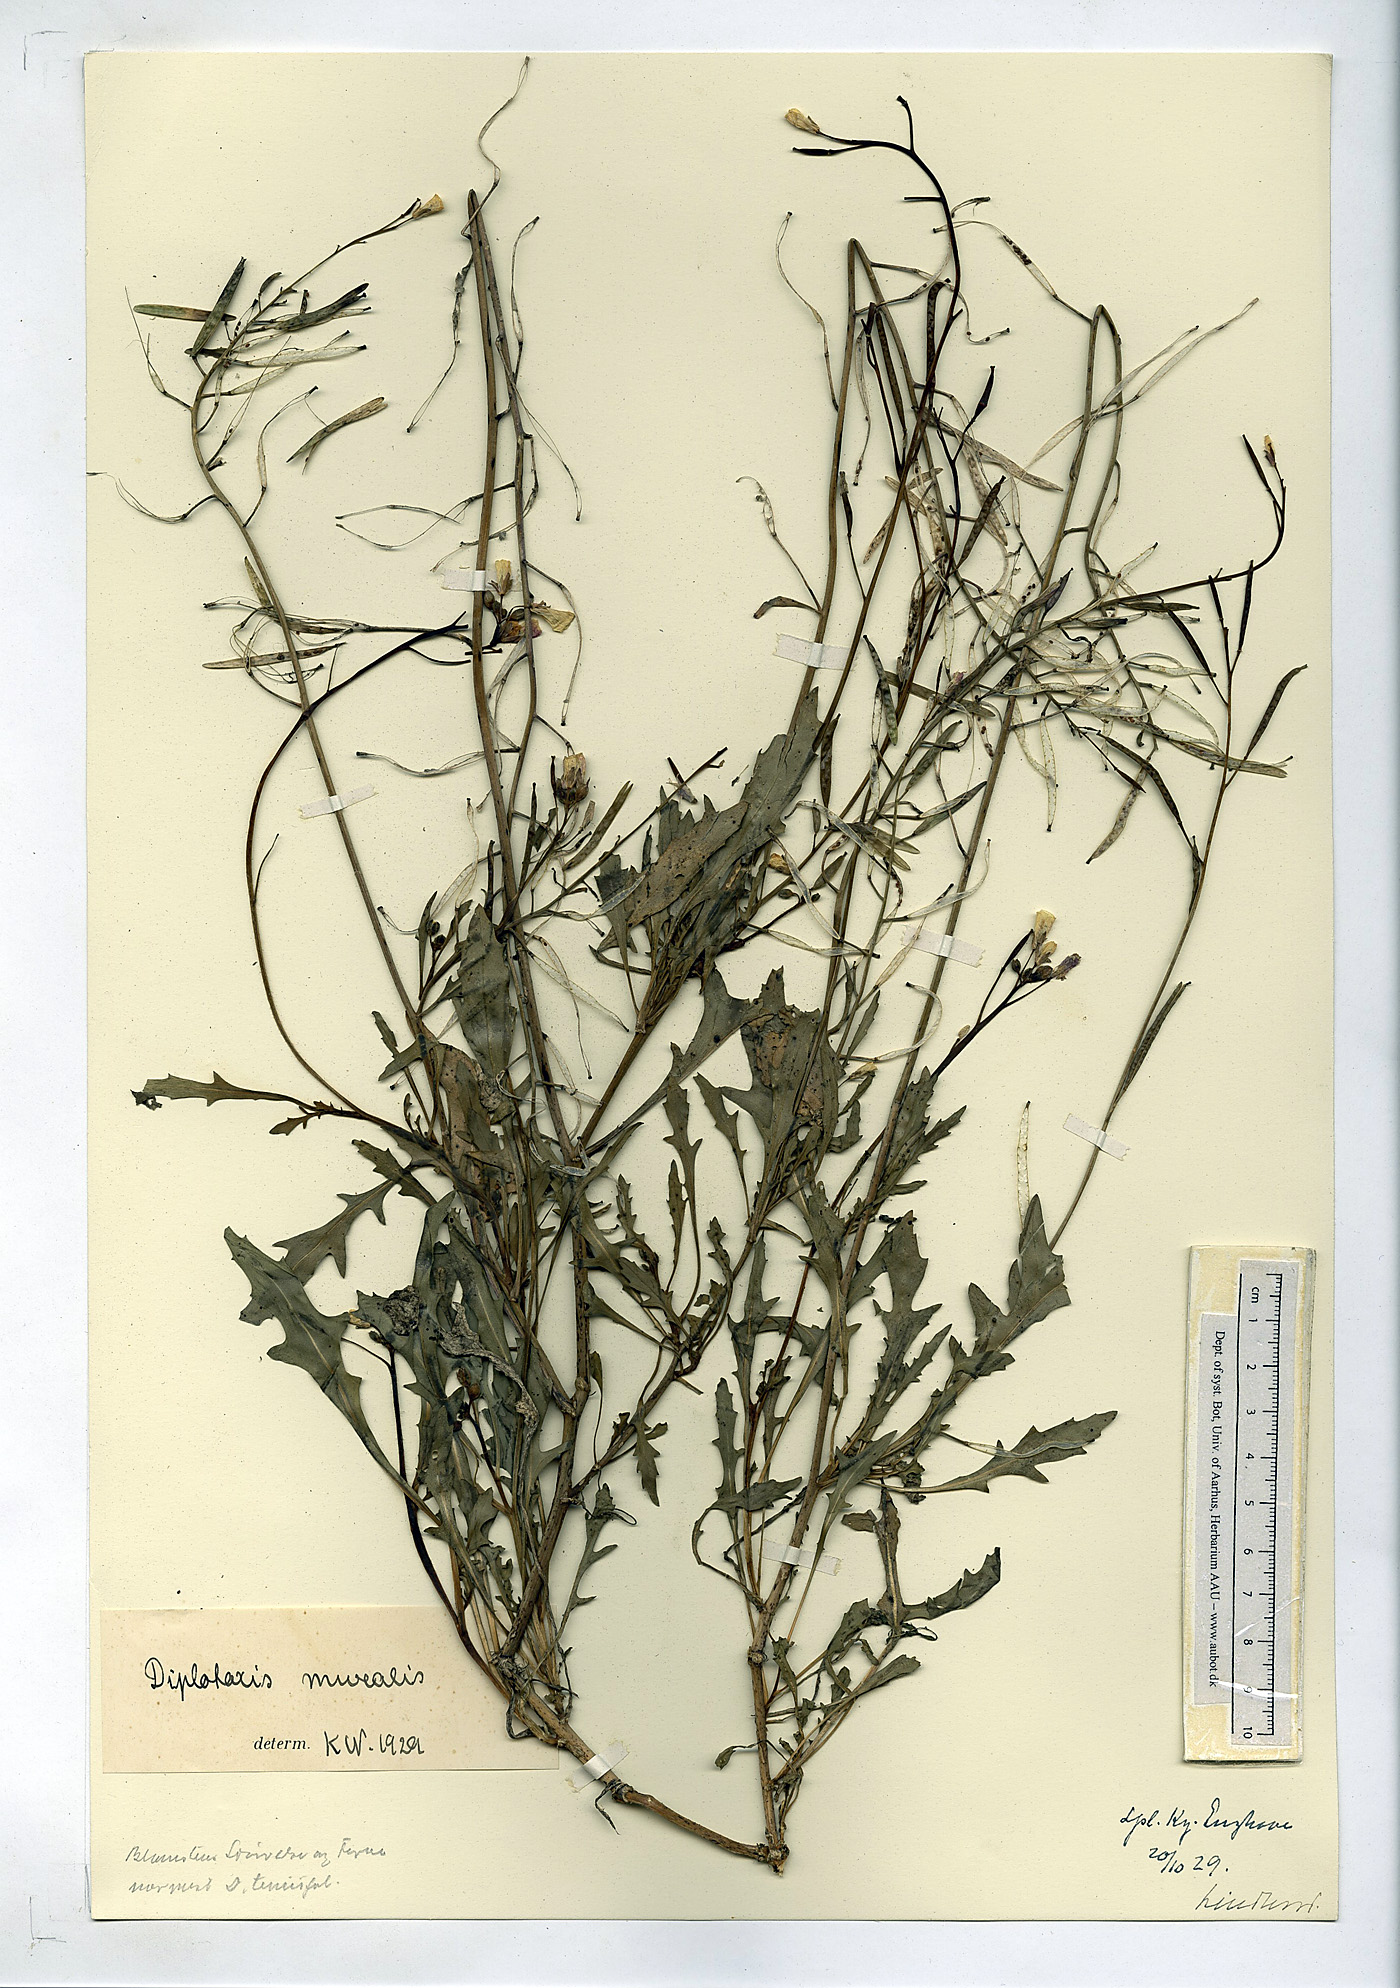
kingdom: Plantae
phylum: Tracheophyta
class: Magnoliopsida
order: Brassicales
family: Brassicaceae
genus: Diplotaxis
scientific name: Diplotaxis muralis
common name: Annual wall-rocket
